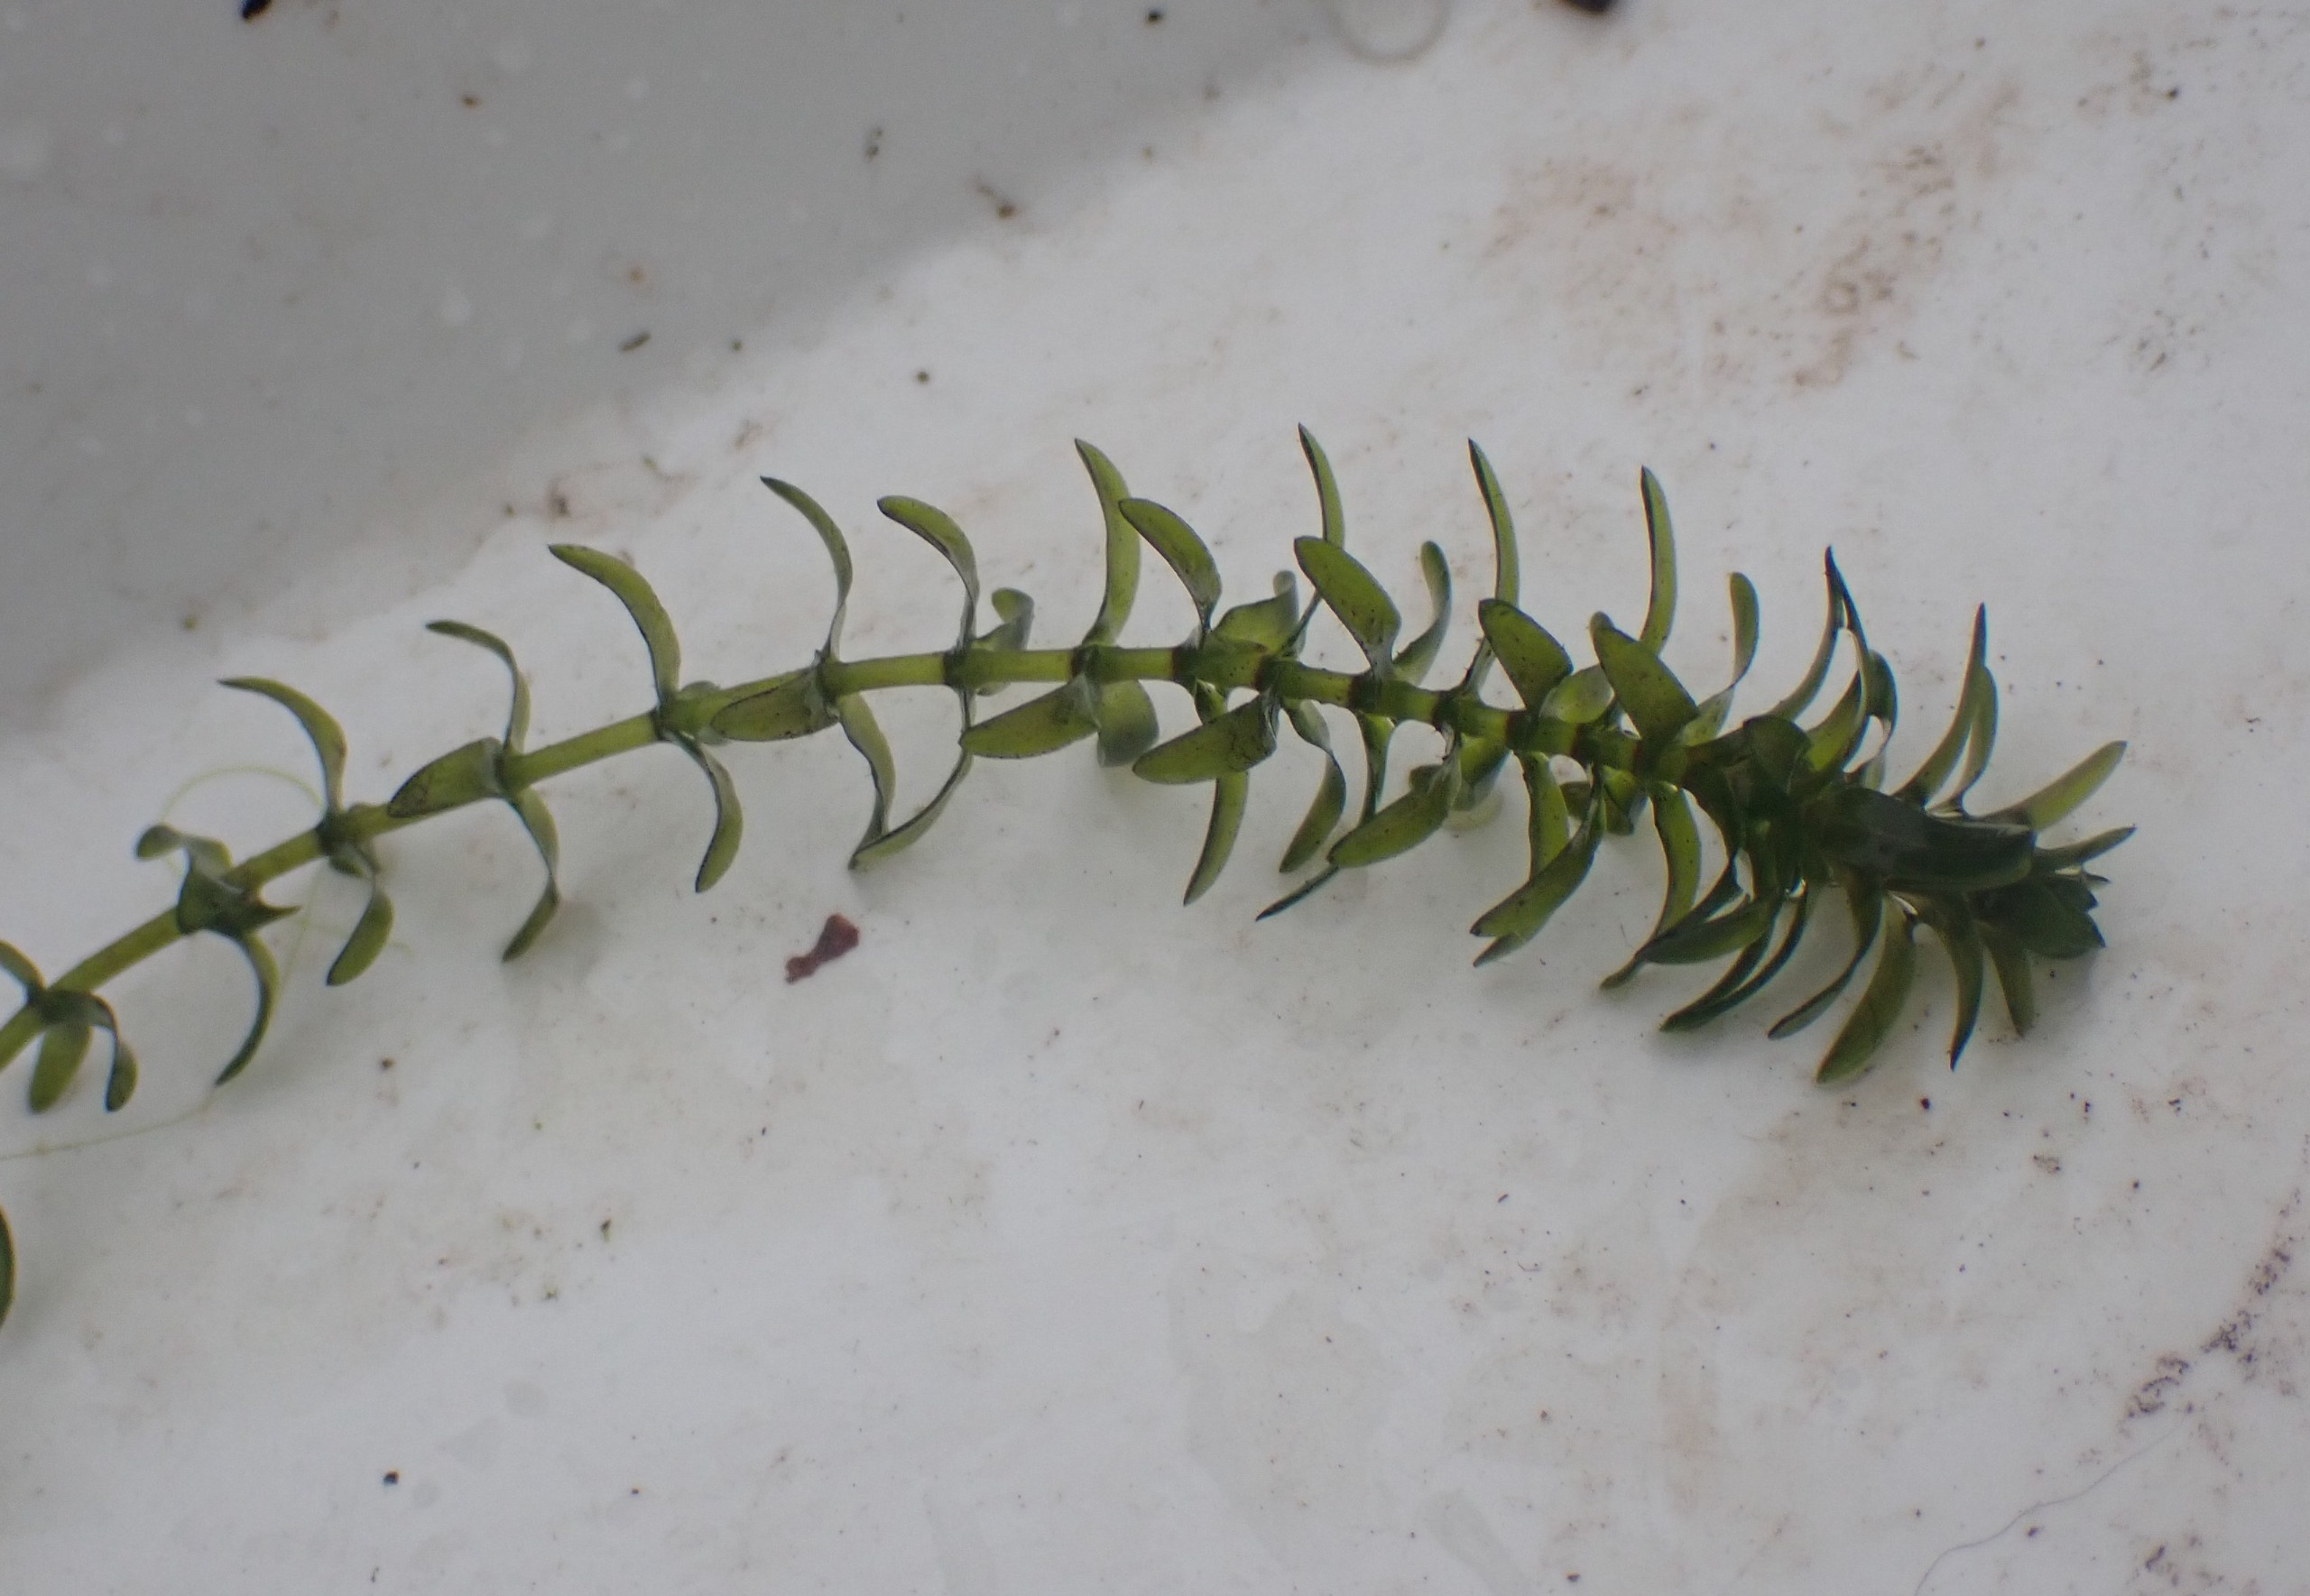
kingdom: Plantae
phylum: Tracheophyta
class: Liliopsida
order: Alismatales
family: Hydrocharitaceae
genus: Elodea
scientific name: Elodea canadensis
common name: Vandpest
